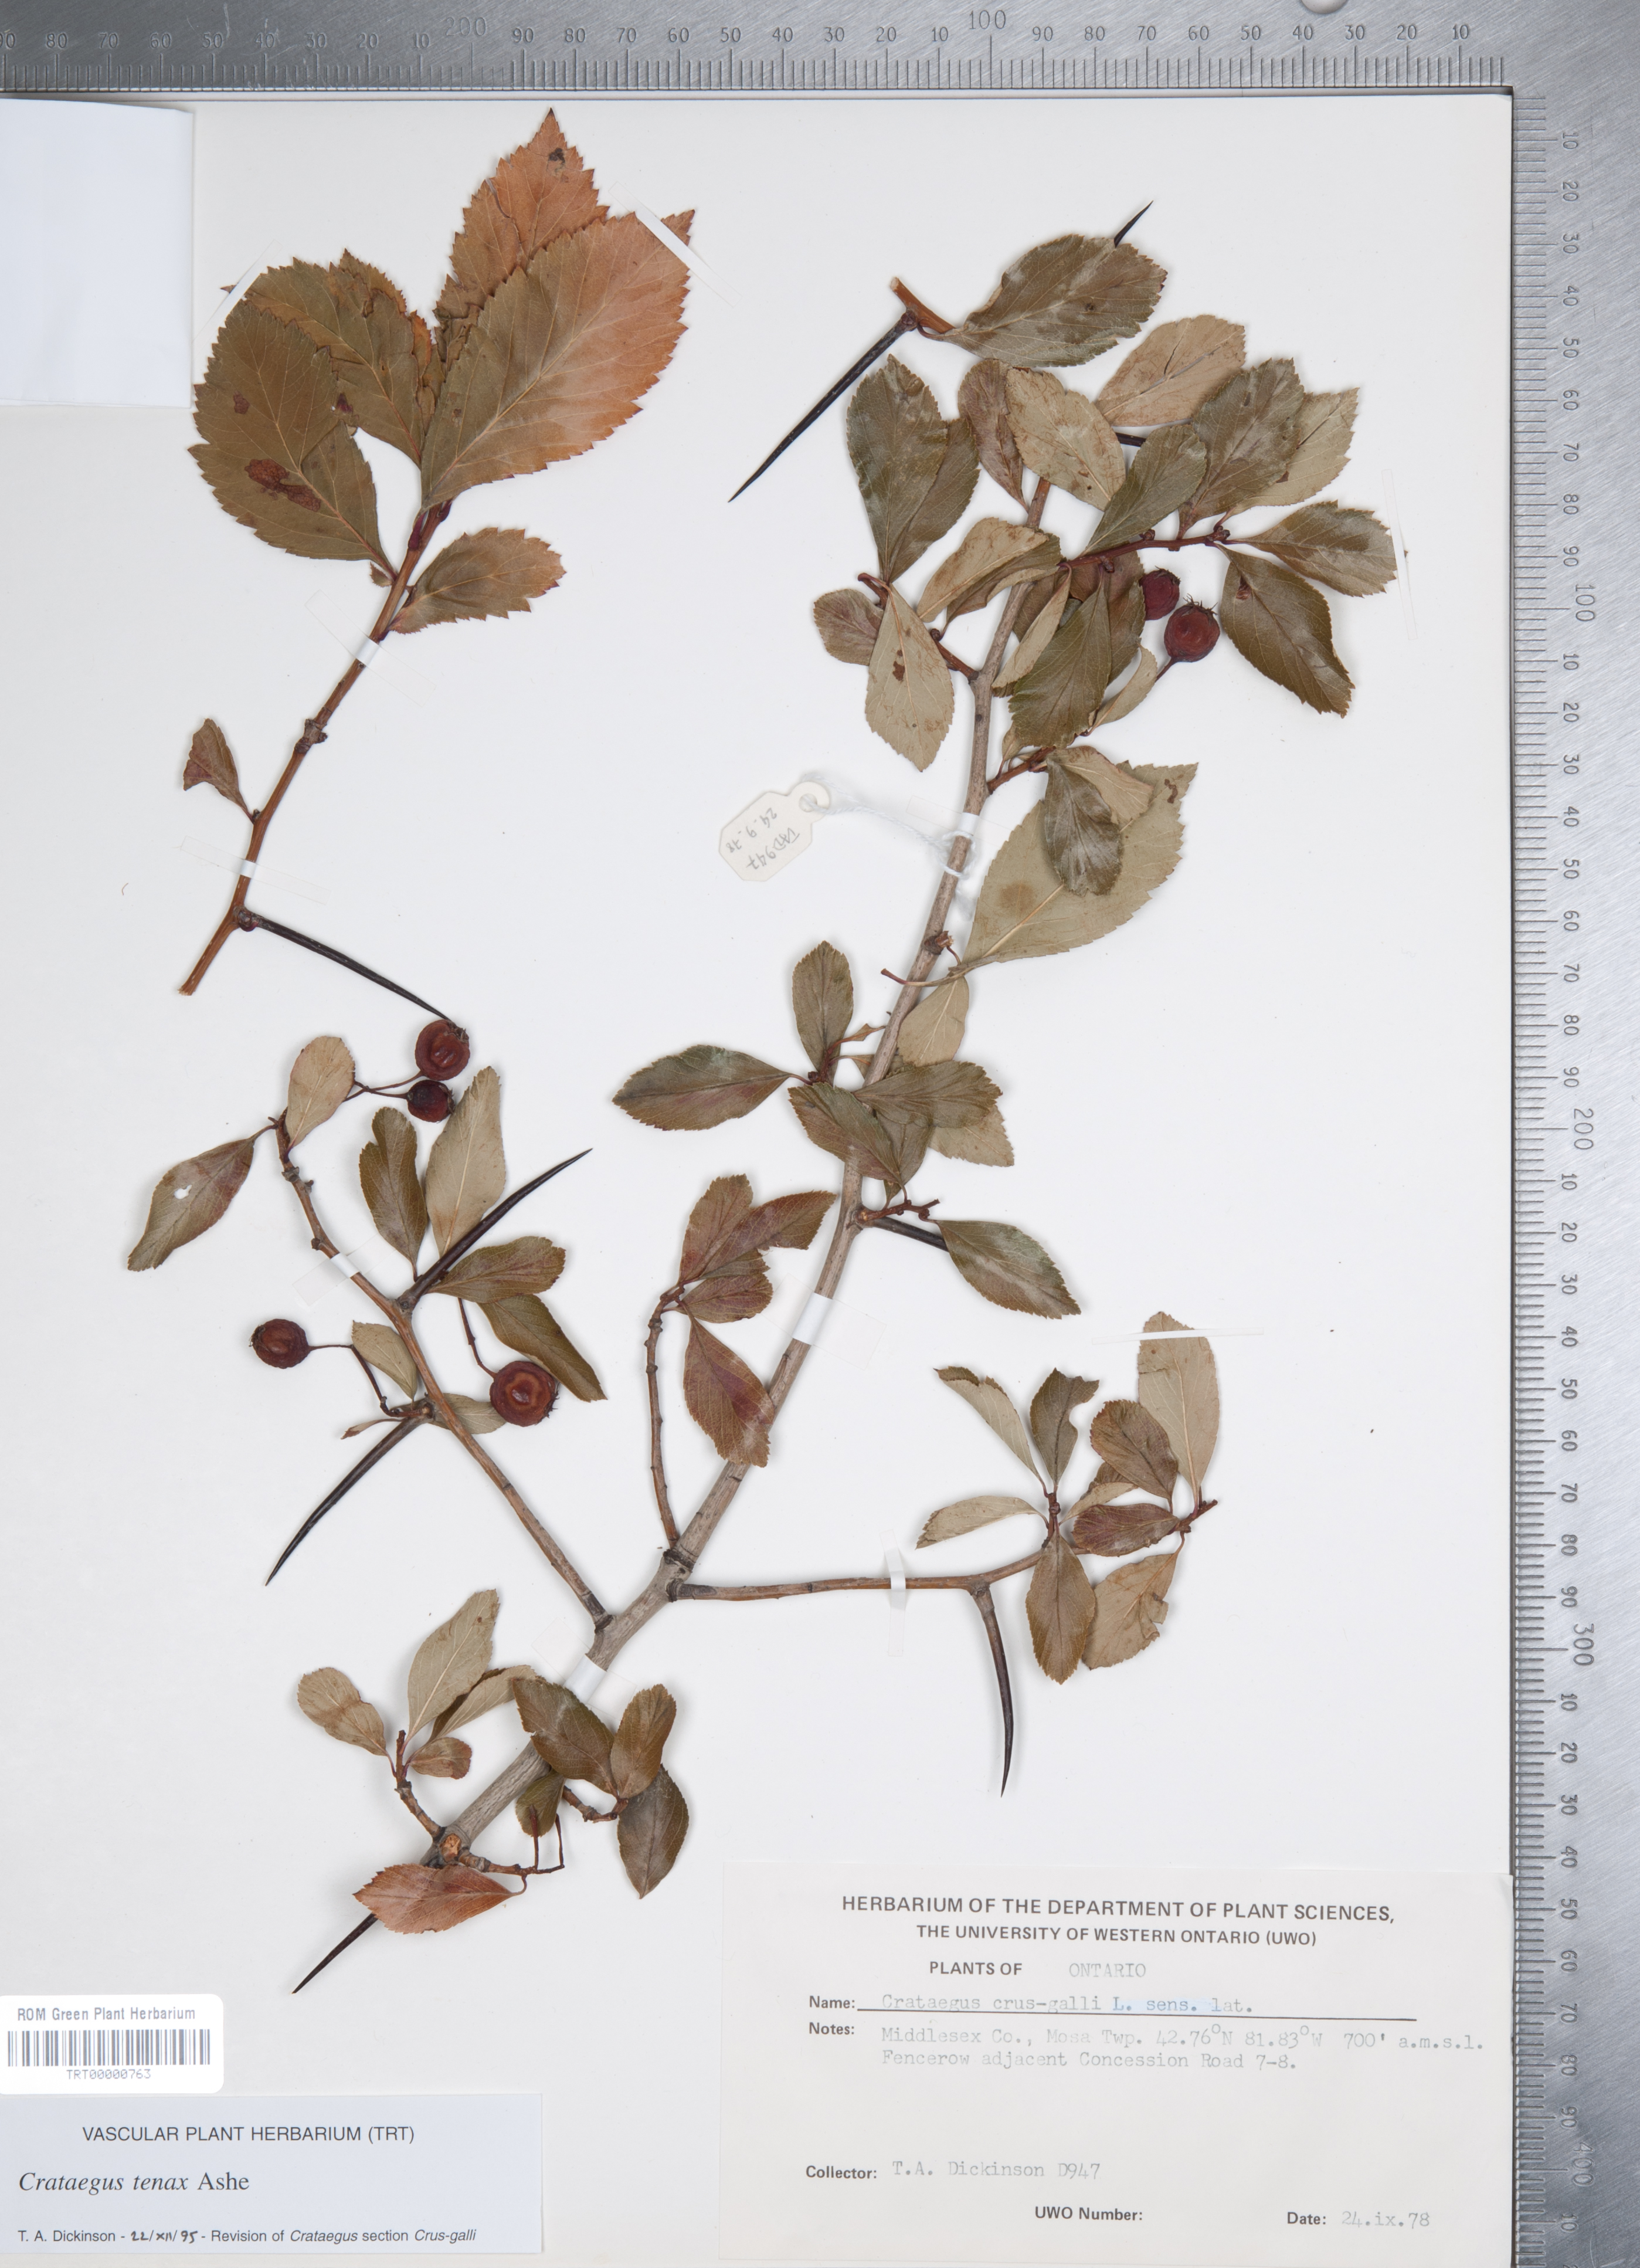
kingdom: Plantae
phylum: Tracheophyta
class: Magnoliopsida
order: Rosales
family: Rosaceae
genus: Crataegus
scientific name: Crataegus crus-galli
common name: Cockspurthorn
